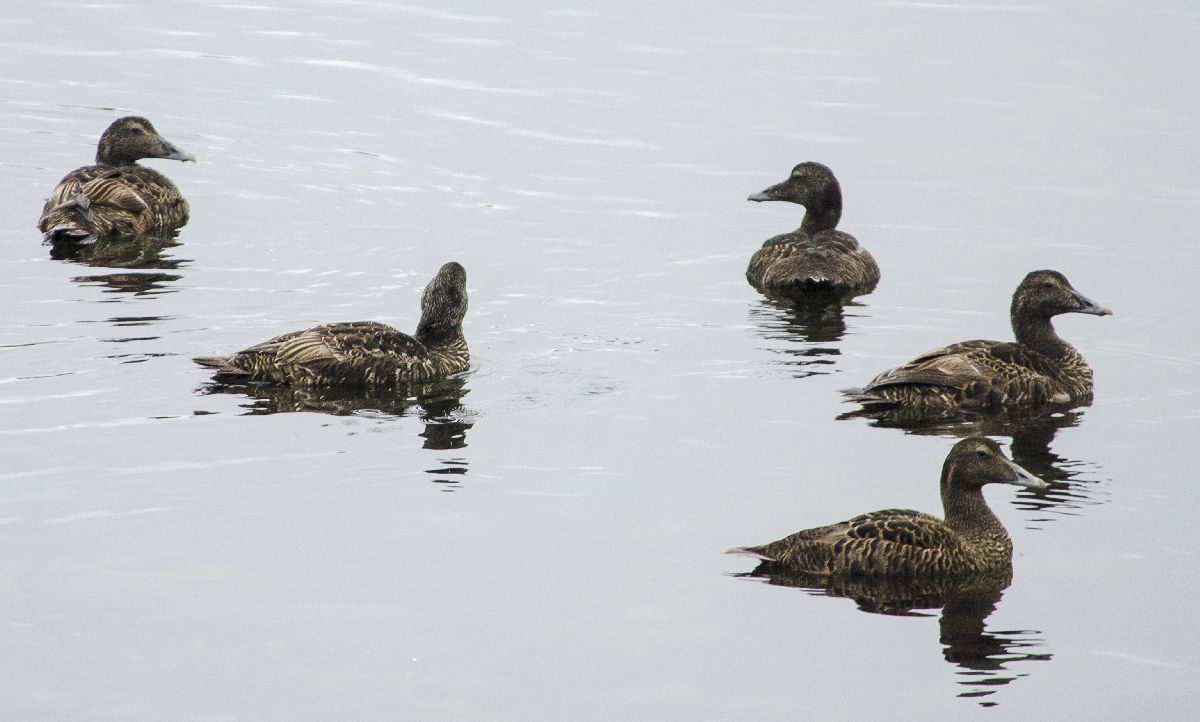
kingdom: Animalia
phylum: Chordata
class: Aves
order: Anseriformes
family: Anatidae
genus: Somateria
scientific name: Somateria mollissima
